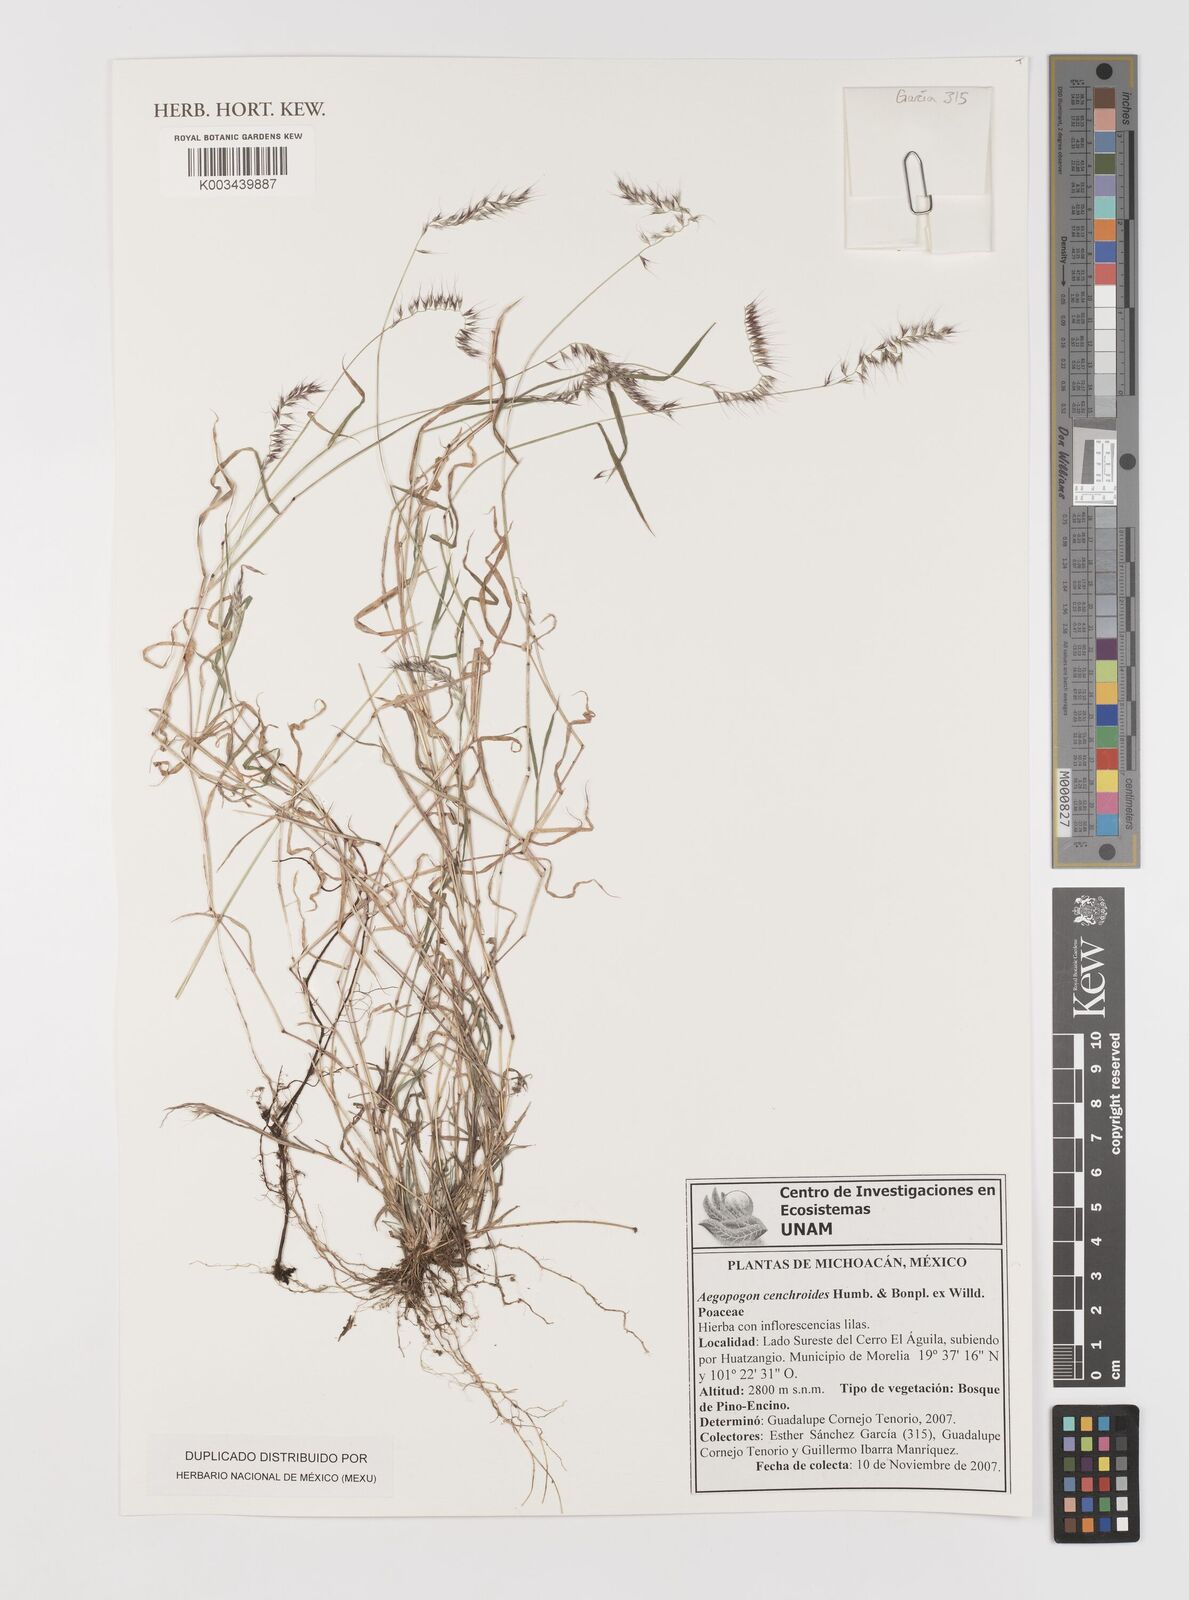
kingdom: Plantae
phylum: Tracheophyta
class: Liliopsida
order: Poales
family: Poaceae
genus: Muhlenbergia
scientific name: Muhlenbergia cenchroides
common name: Relaxgrass
